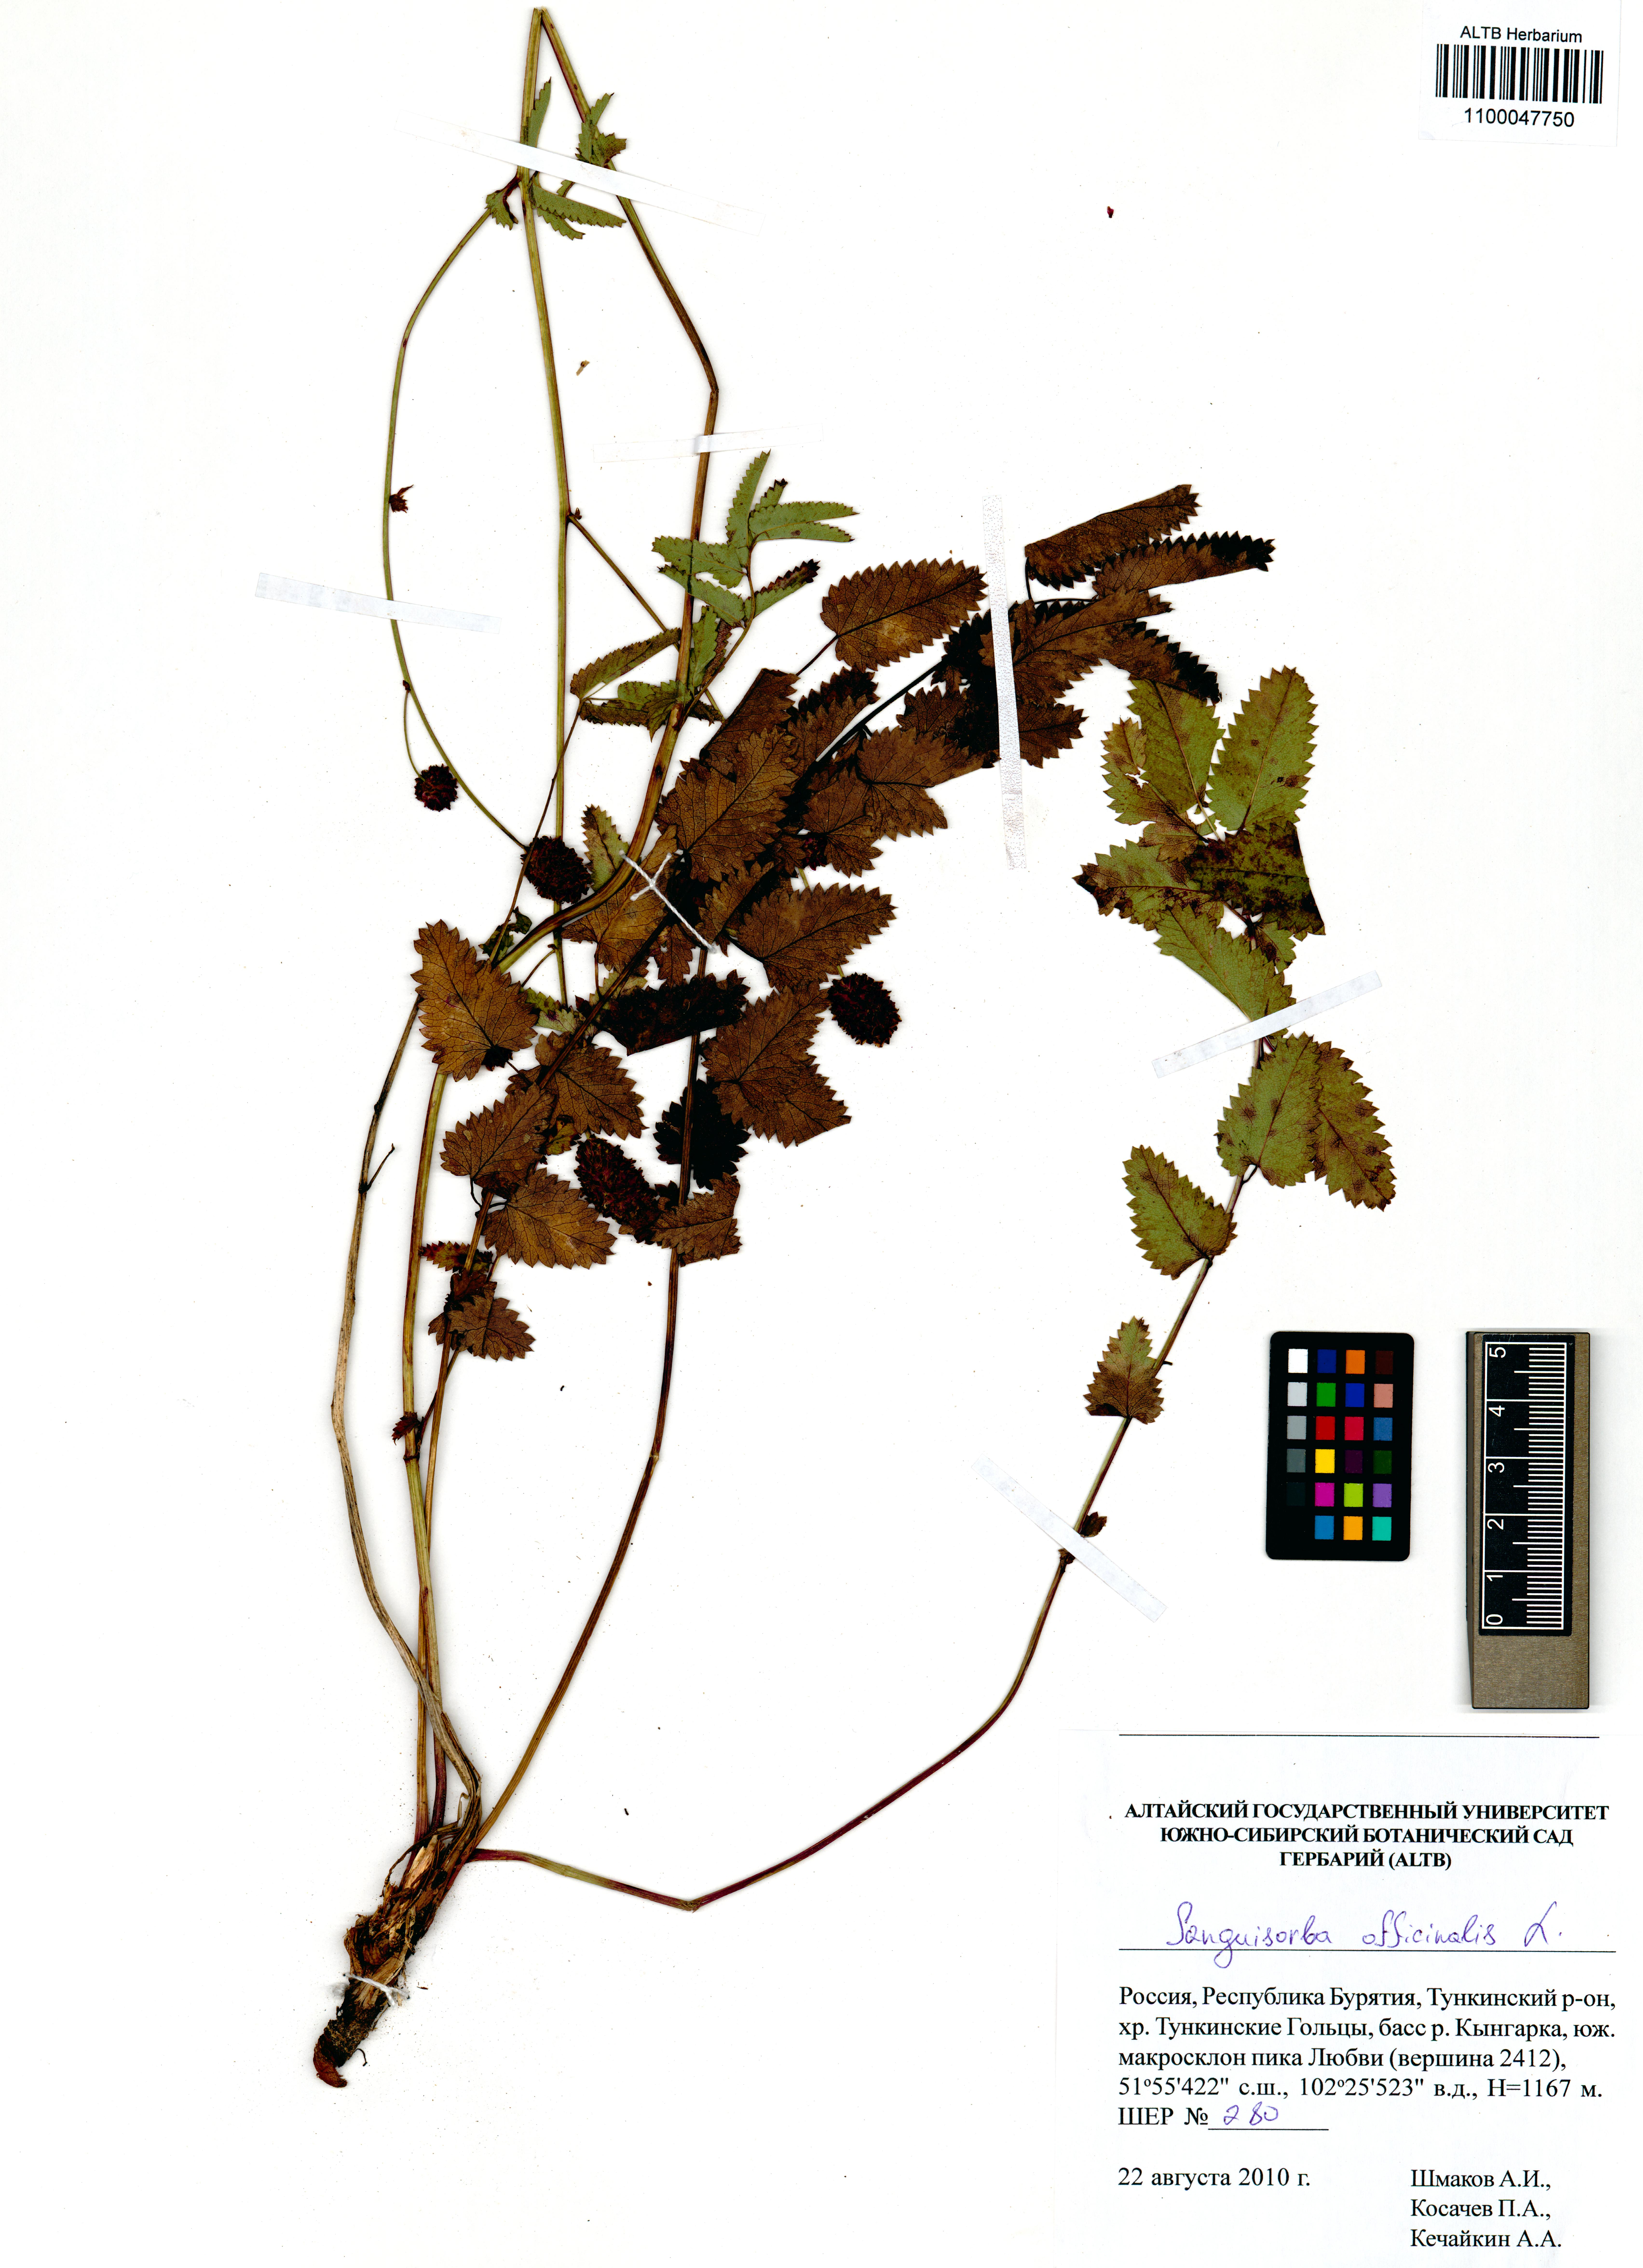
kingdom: Plantae
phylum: Tracheophyta
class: Magnoliopsida
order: Rosales
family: Rosaceae
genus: Sanguisorba
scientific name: Sanguisorba officinalis
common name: Great burnet
